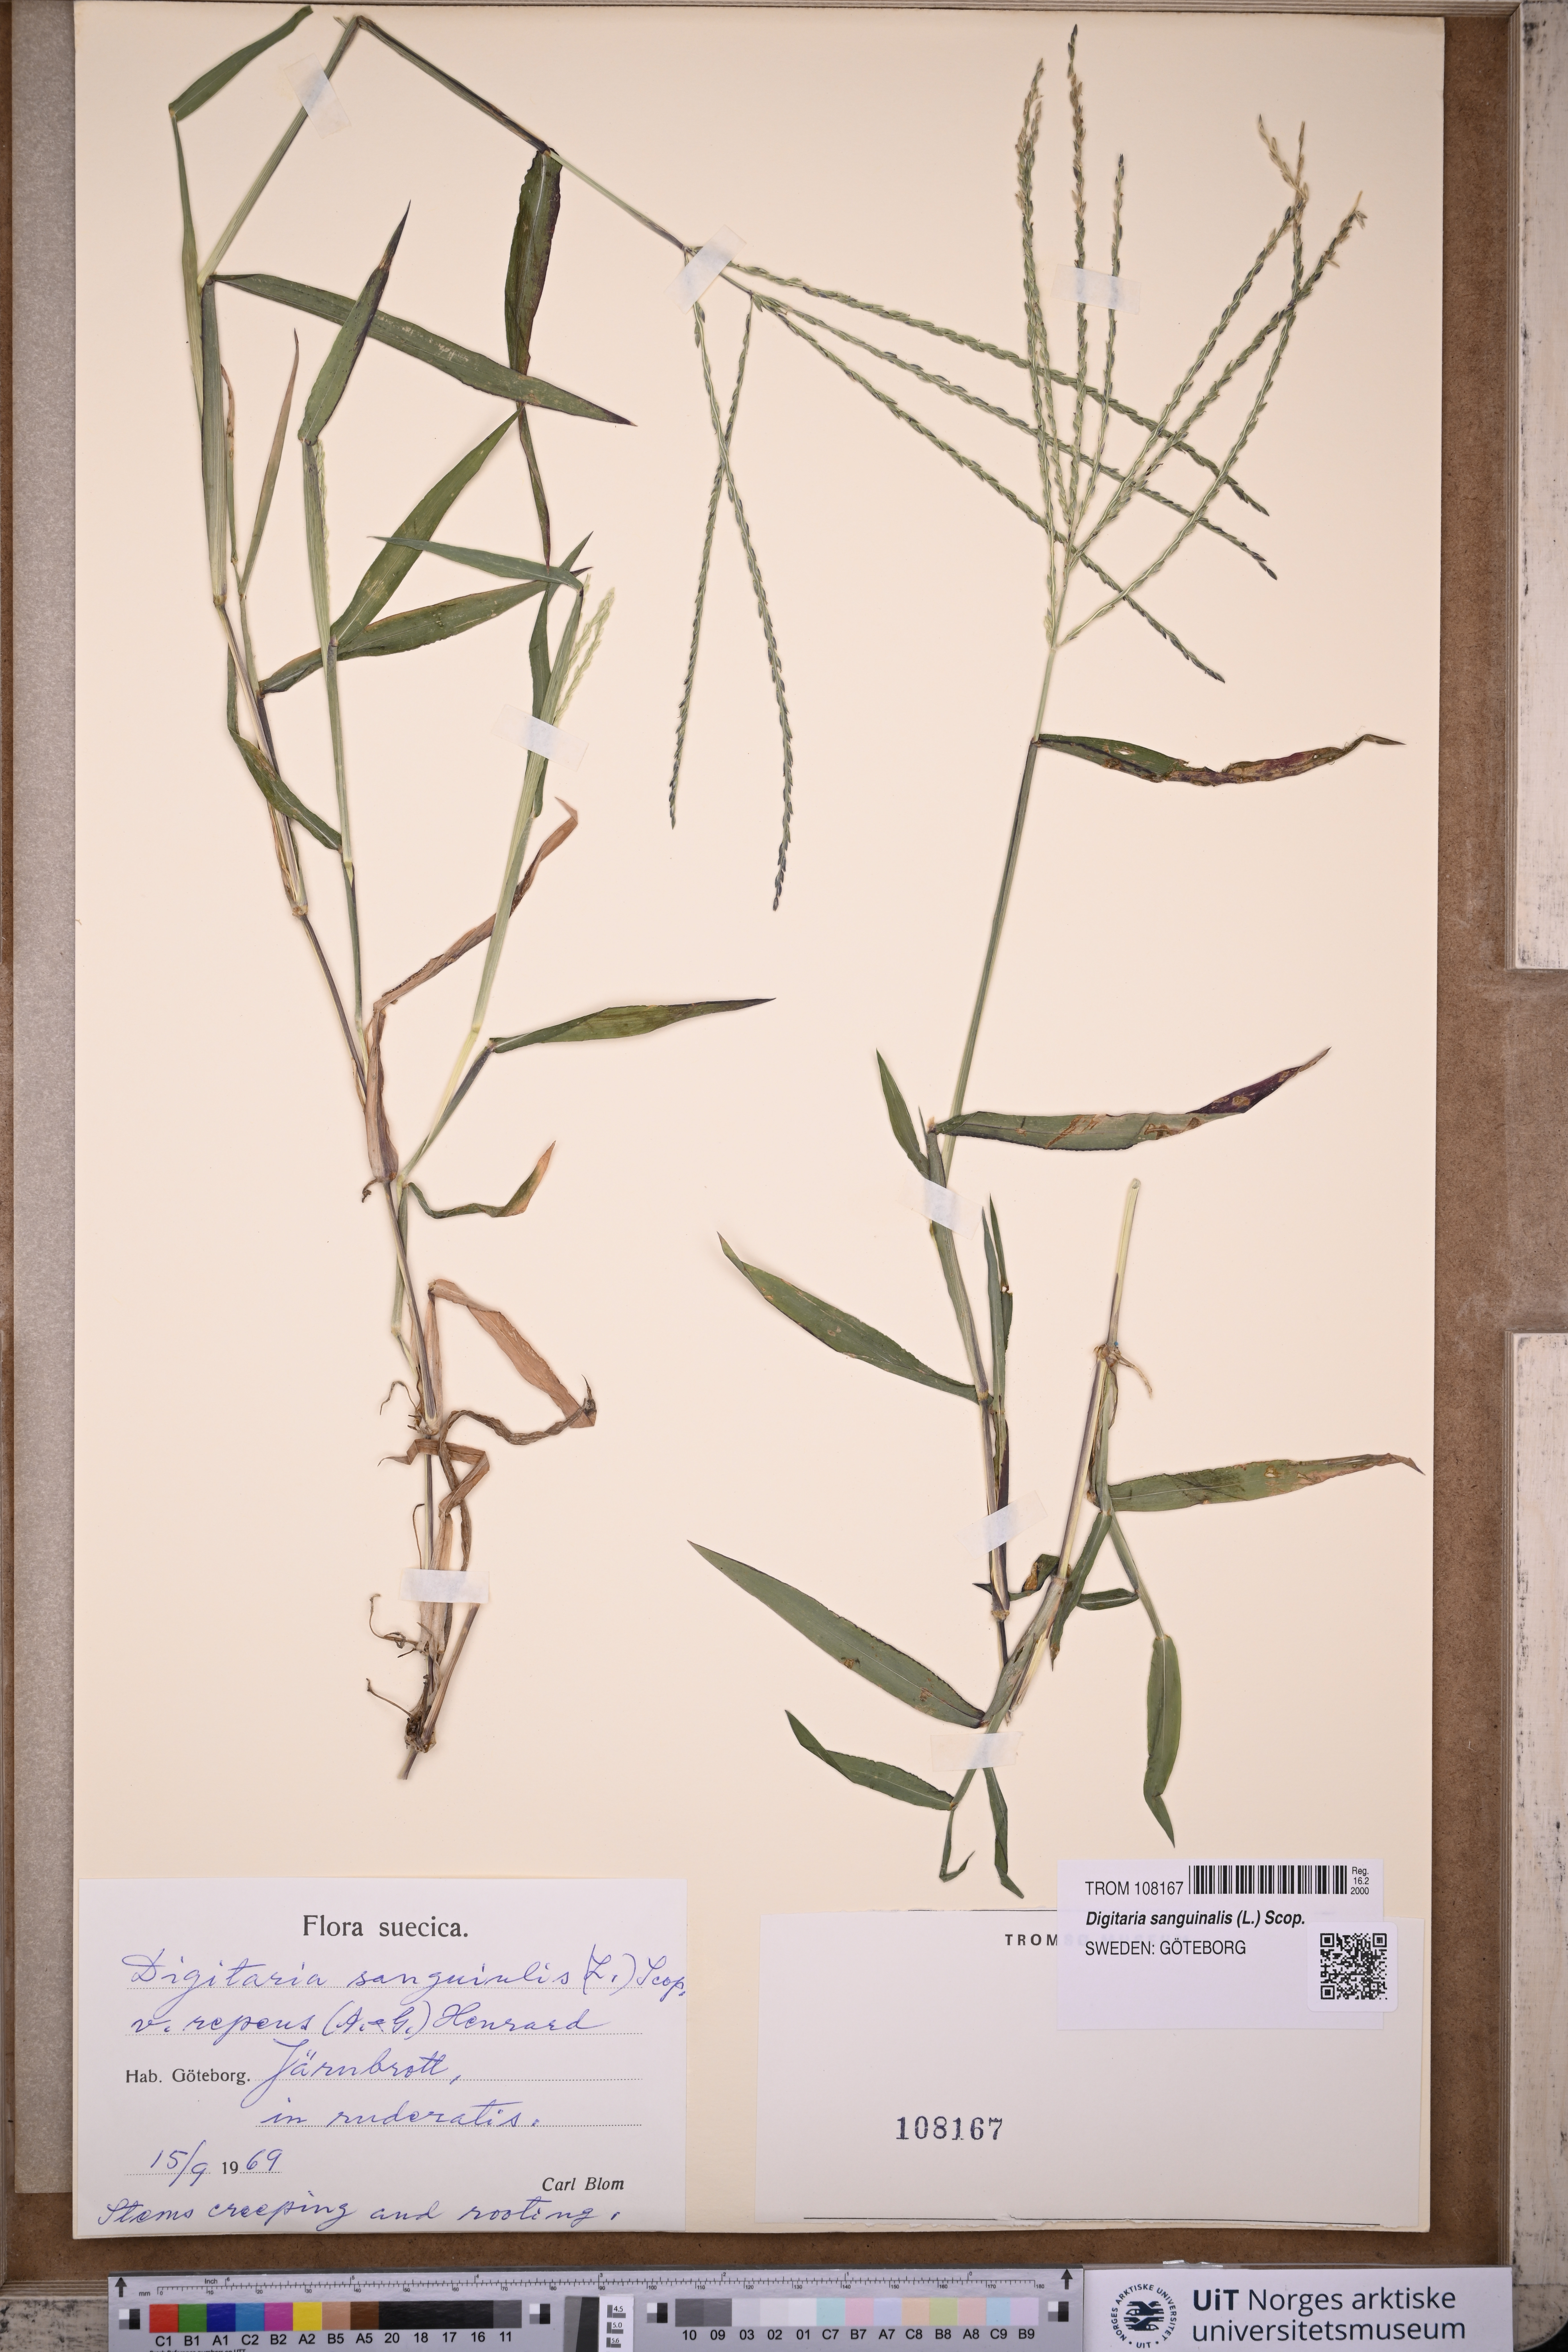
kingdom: Plantae
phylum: Tracheophyta
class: Liliopsida
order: Poales
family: Poaceae
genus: Digitaria
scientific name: Digitaria sanguinalis
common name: Hairy crabgrass
